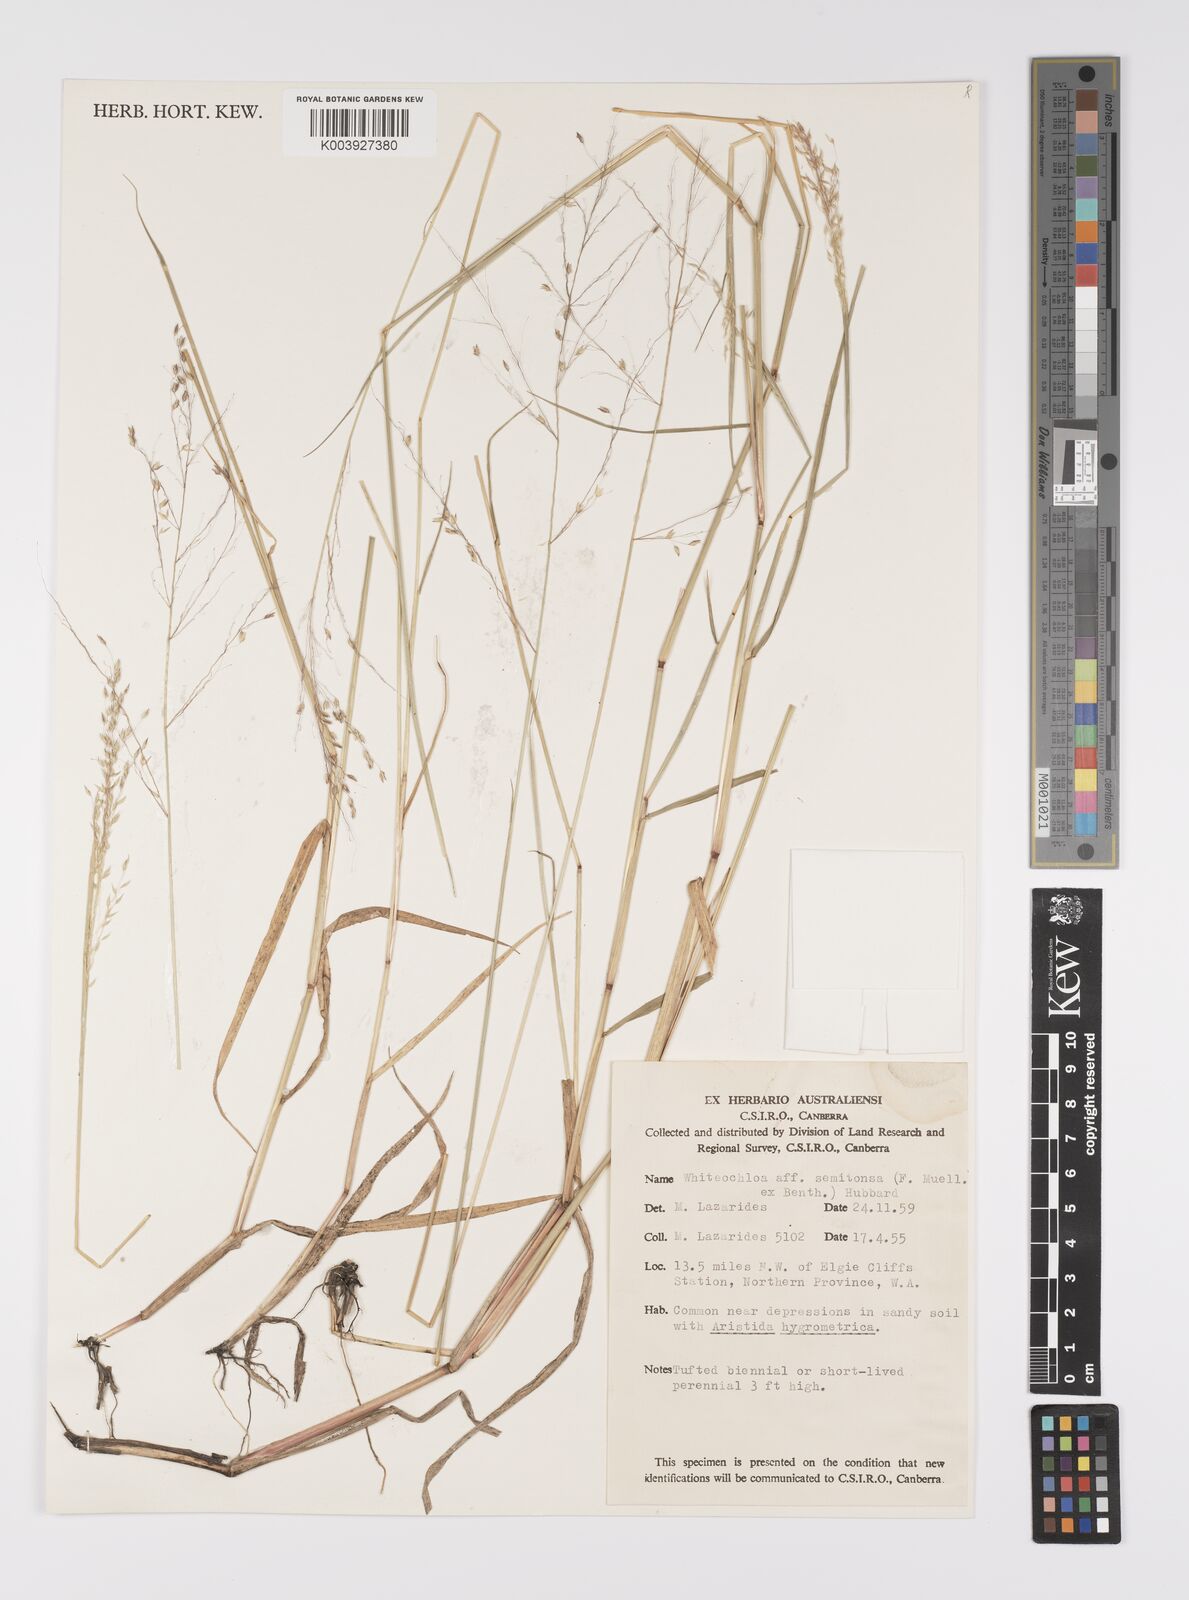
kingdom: Plantae
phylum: Tracheophyta
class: Liliopsida
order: Poales
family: Poaceae
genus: Whiteochloa
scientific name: Whiteochloa semitonsa
